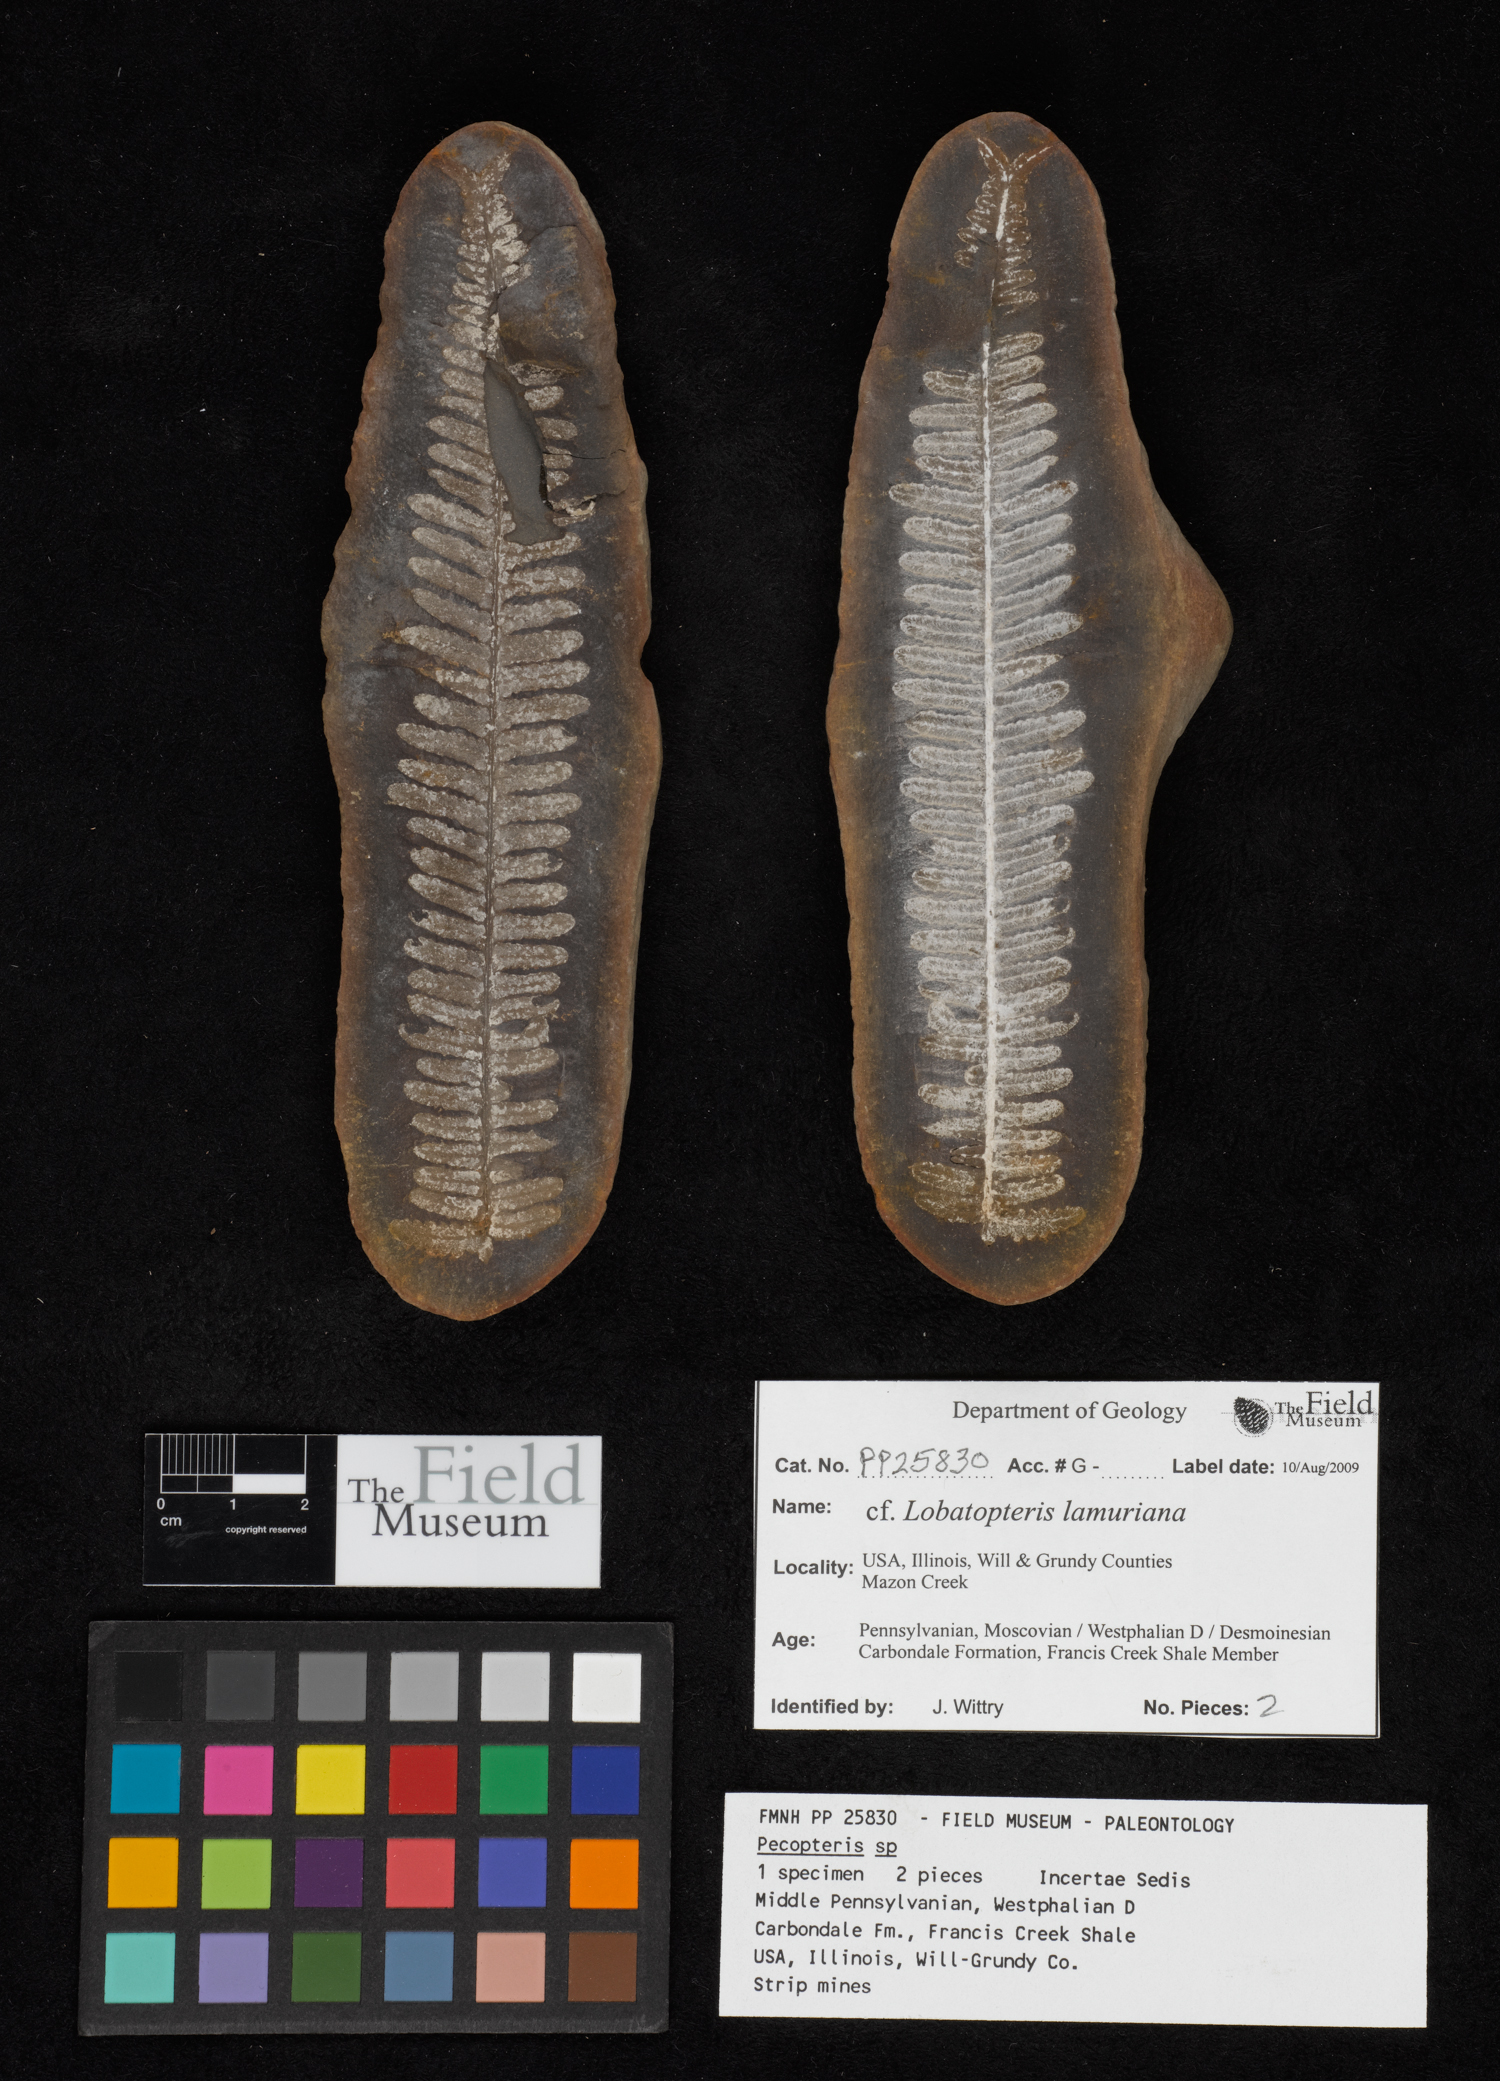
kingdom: Plantae
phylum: Tracheophyta
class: Polypodiopsida
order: Marattiales
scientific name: Marattiales
